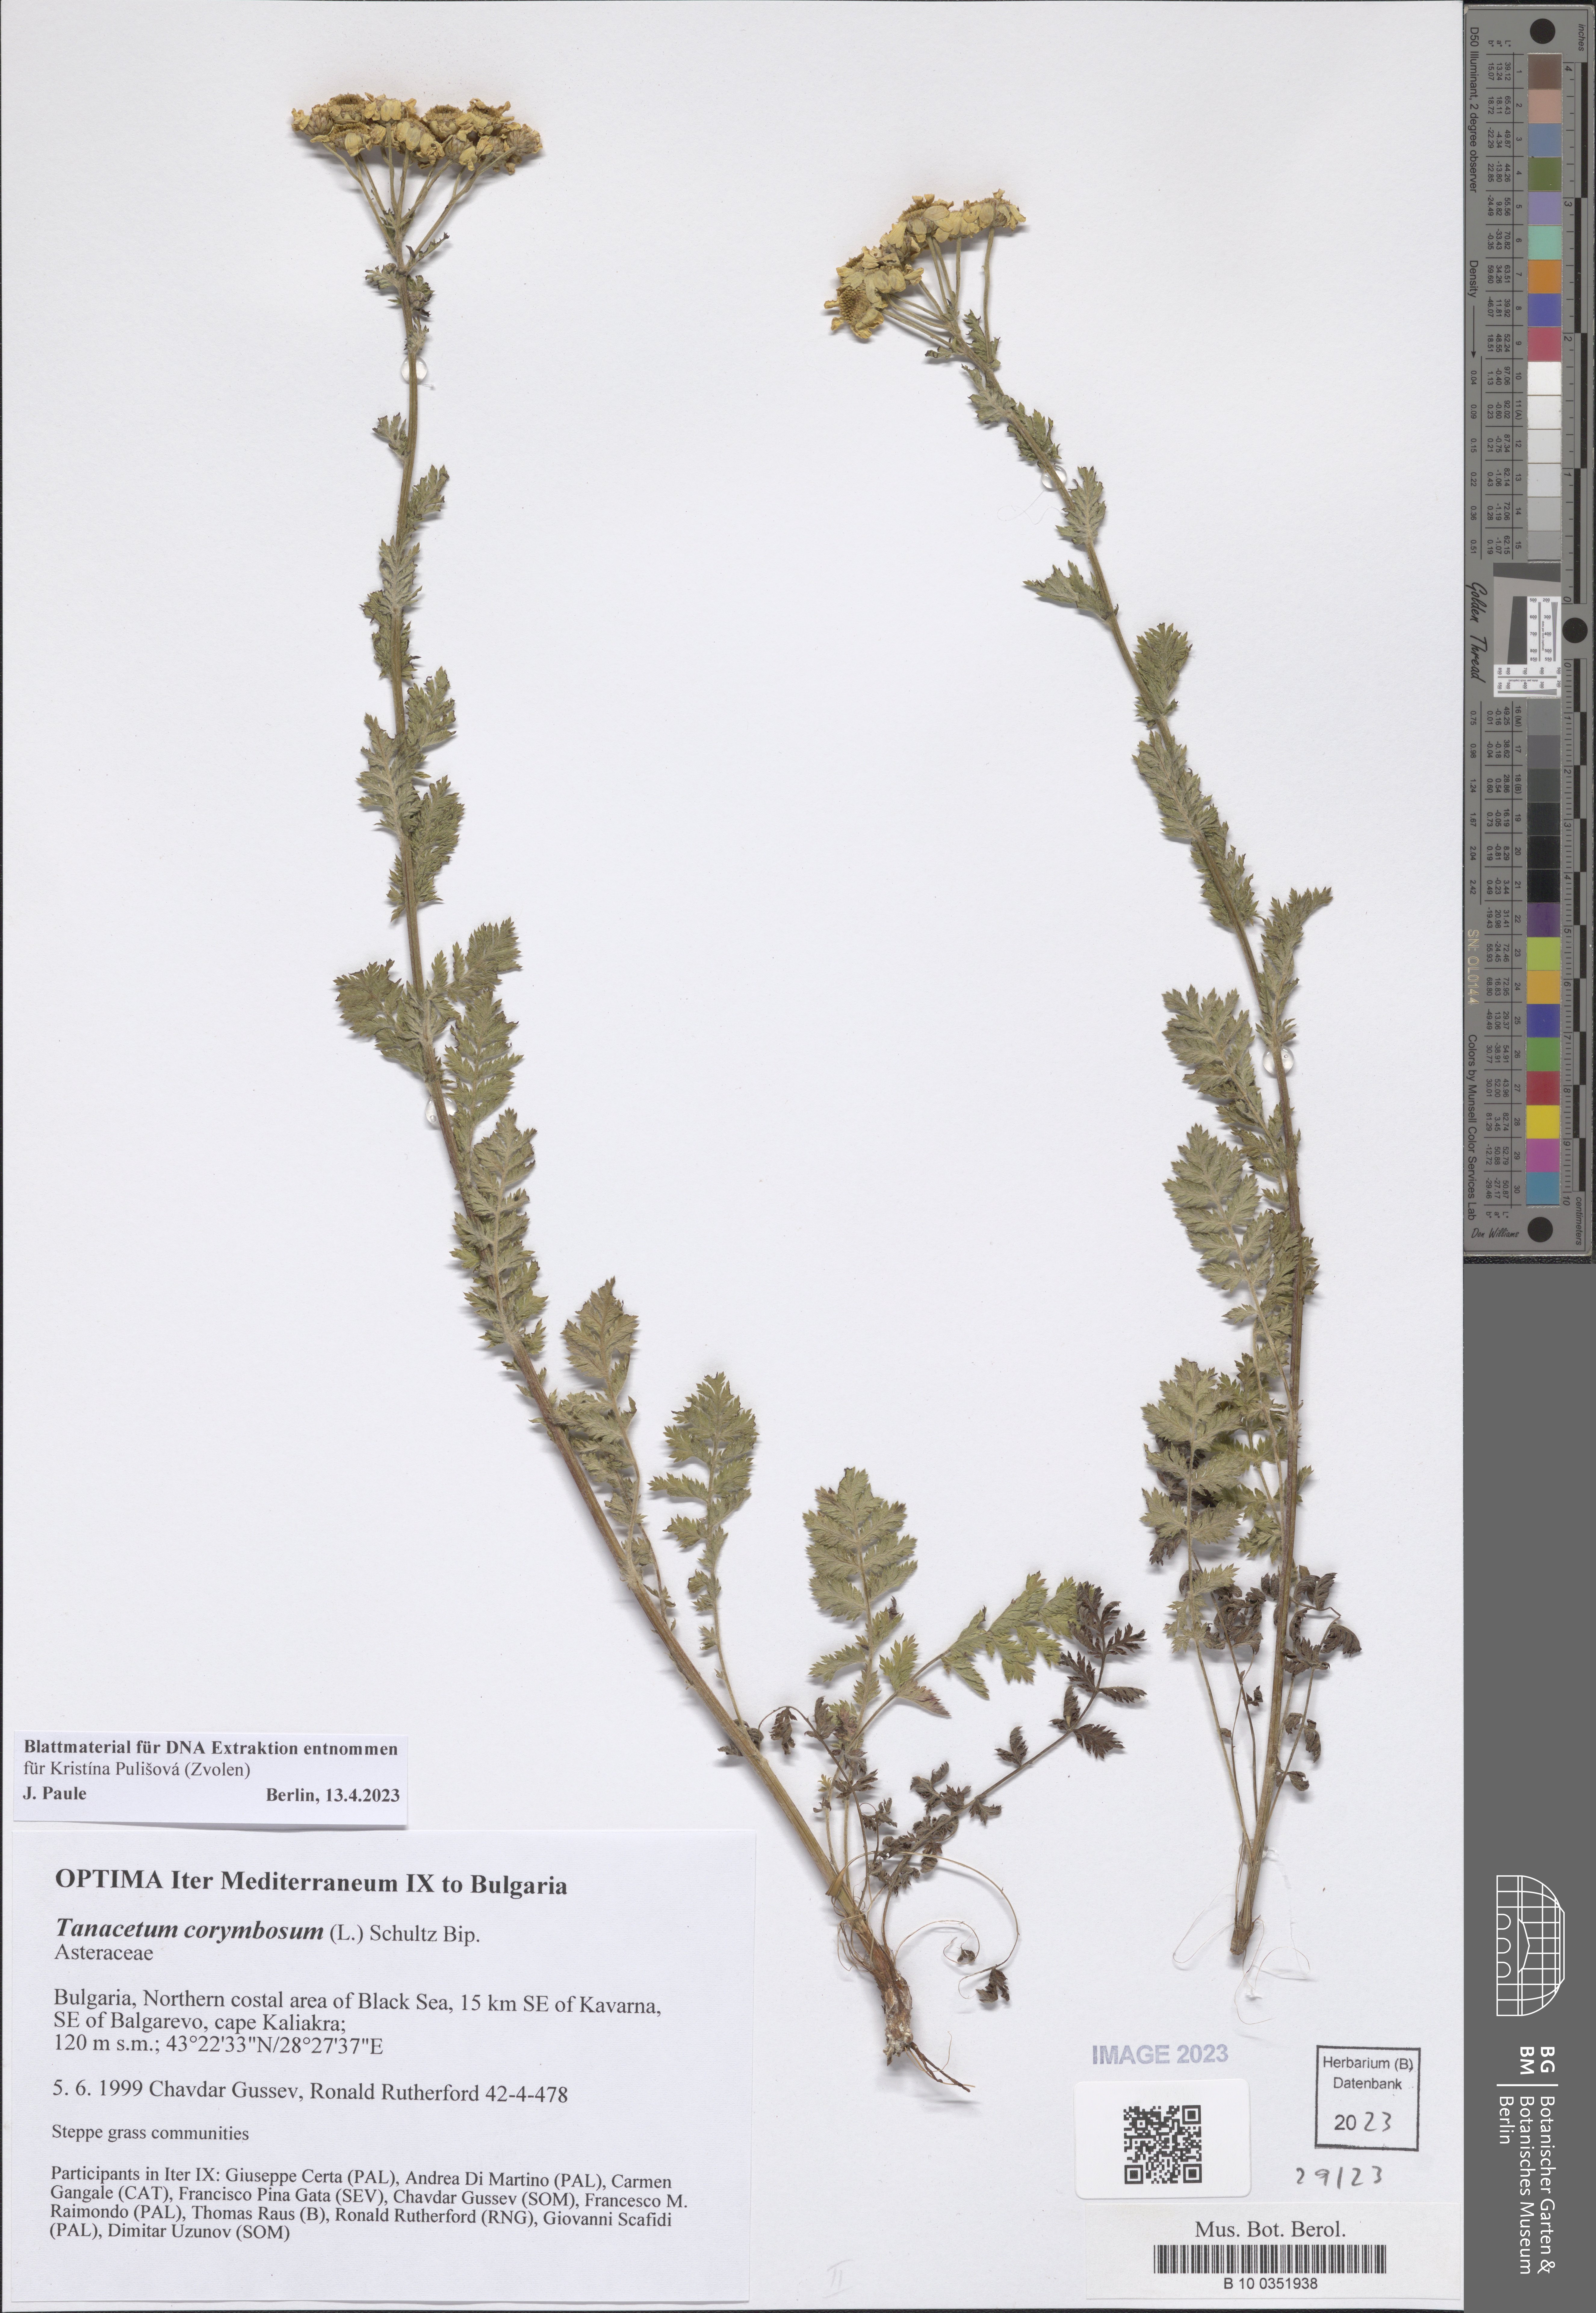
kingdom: Plantae
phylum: Tracheophyta
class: Magnoliopsida
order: Asterales
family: Asteraceae
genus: Tanacetum
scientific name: Tanacetum corymbosum
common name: Scentless feverfew
